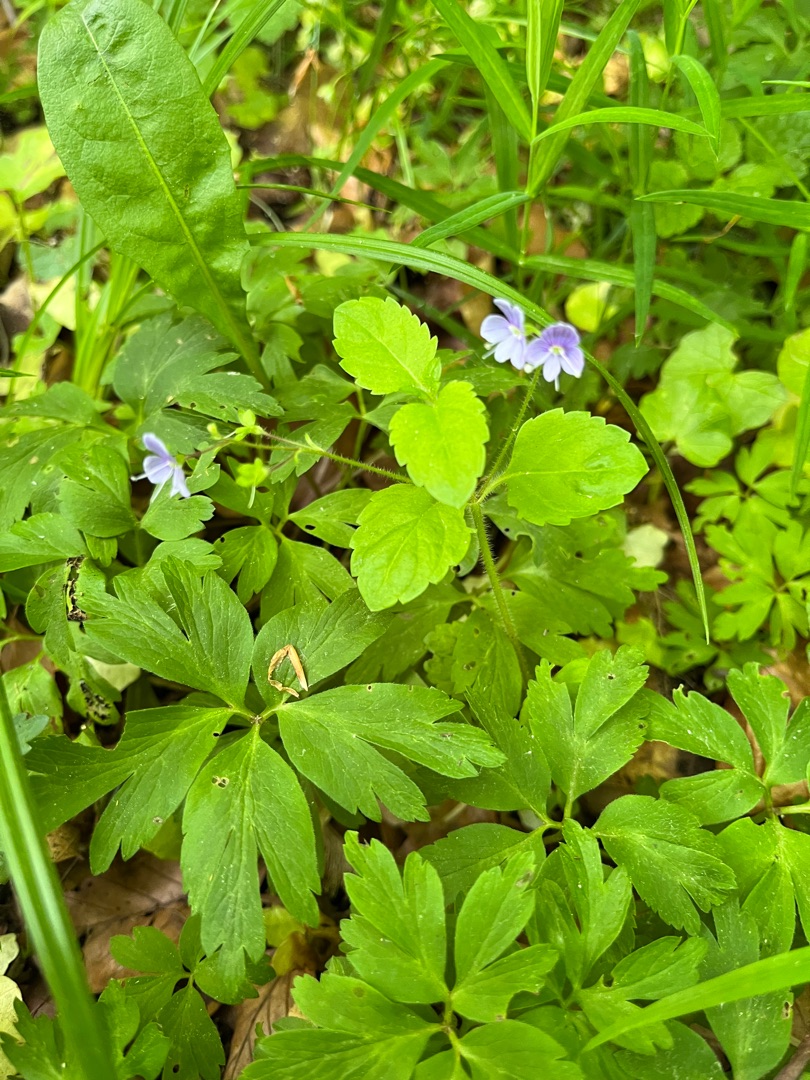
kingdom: Plantae
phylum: Tracheophyta
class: Magnoliopsida
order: Lamiales
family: Plantaginaceae
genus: Veronica
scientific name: Veronica montana
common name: Bjerg-ærenpris
